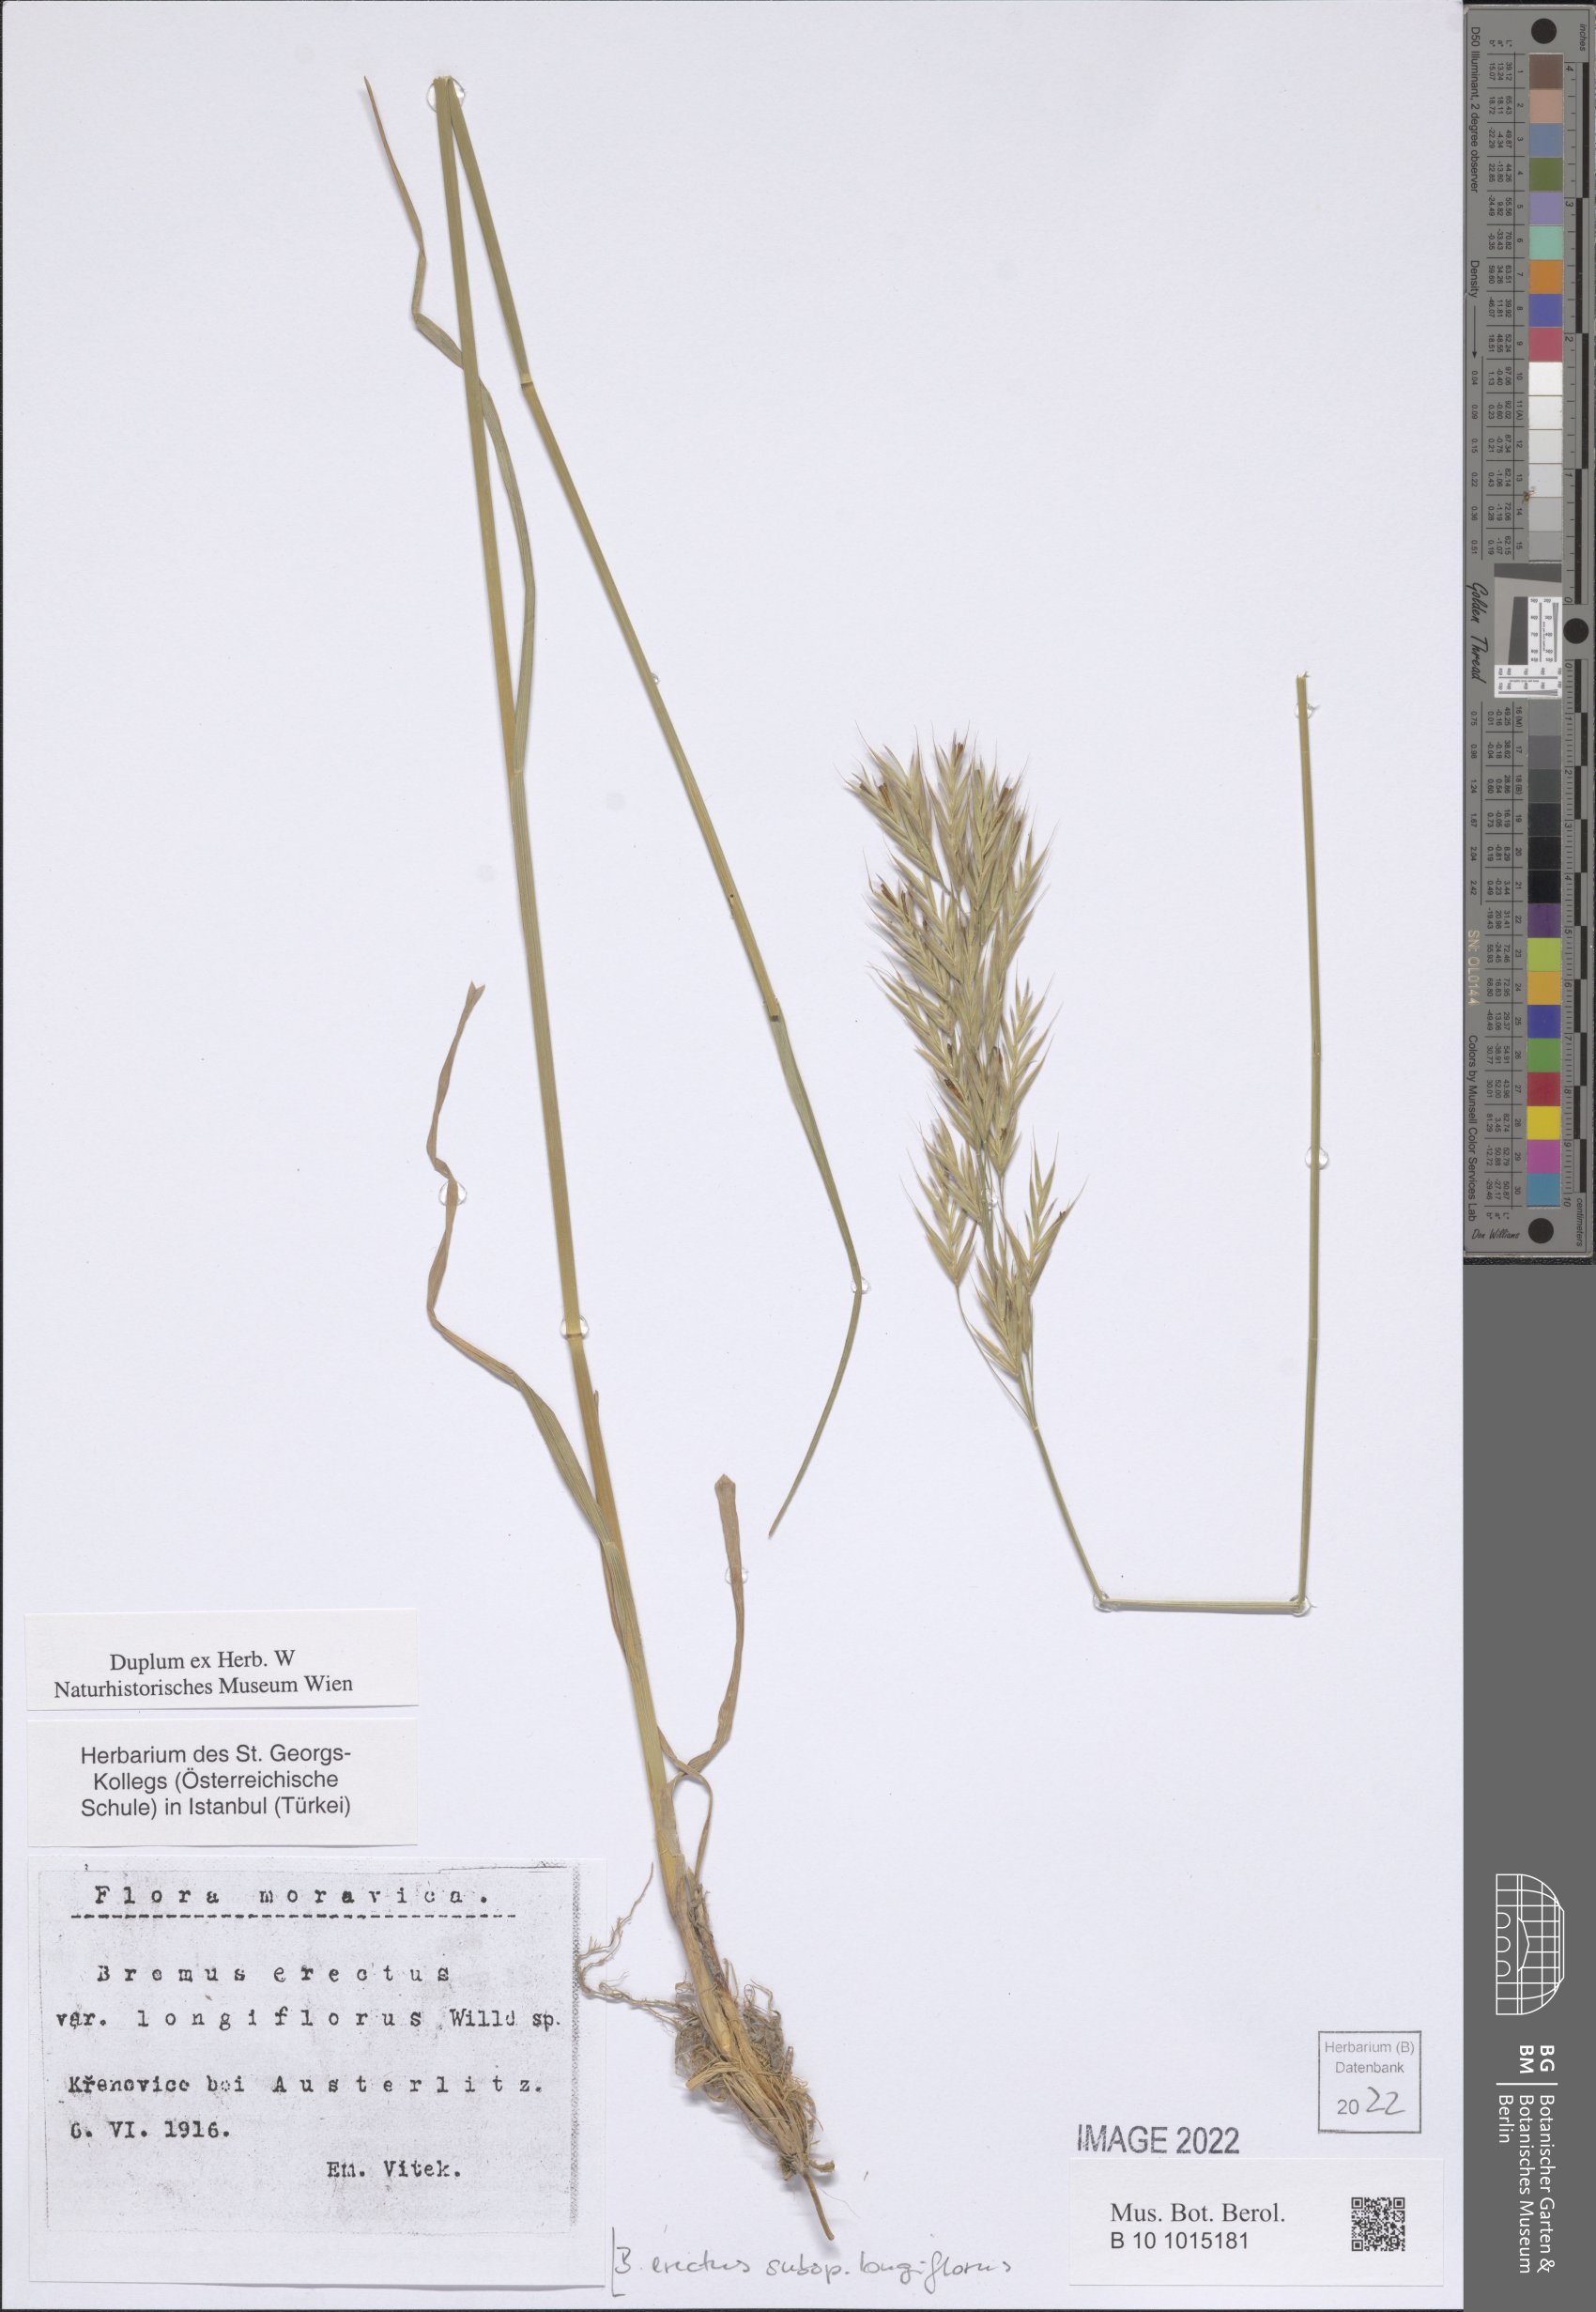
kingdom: Plantae
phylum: Tracheophyta
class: Liliopsida
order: Poales
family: Poaceae
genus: Bromus
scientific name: Bromus erectus
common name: Erect brome
